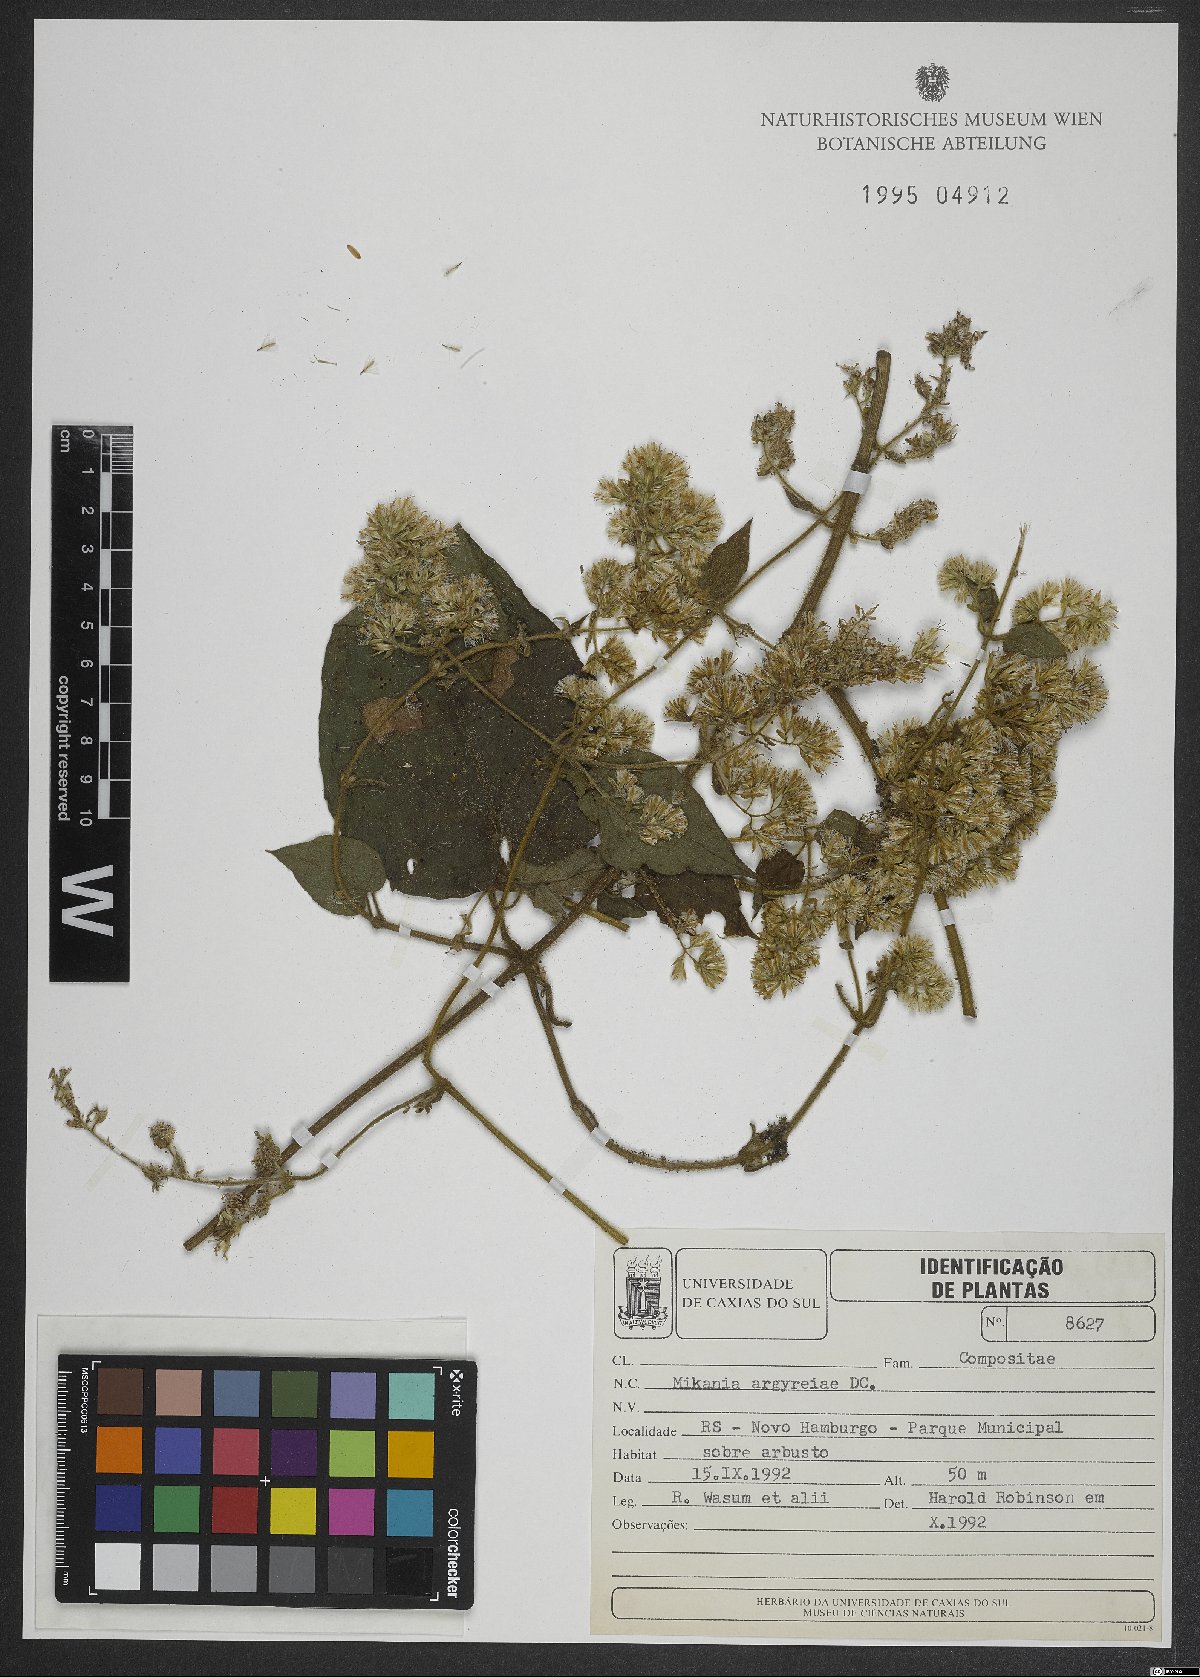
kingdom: Plantae
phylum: Tracheophyta
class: Magnoliopsida
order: Asterales
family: Asteraceae
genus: Mikania
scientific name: Mikania argyreiae
